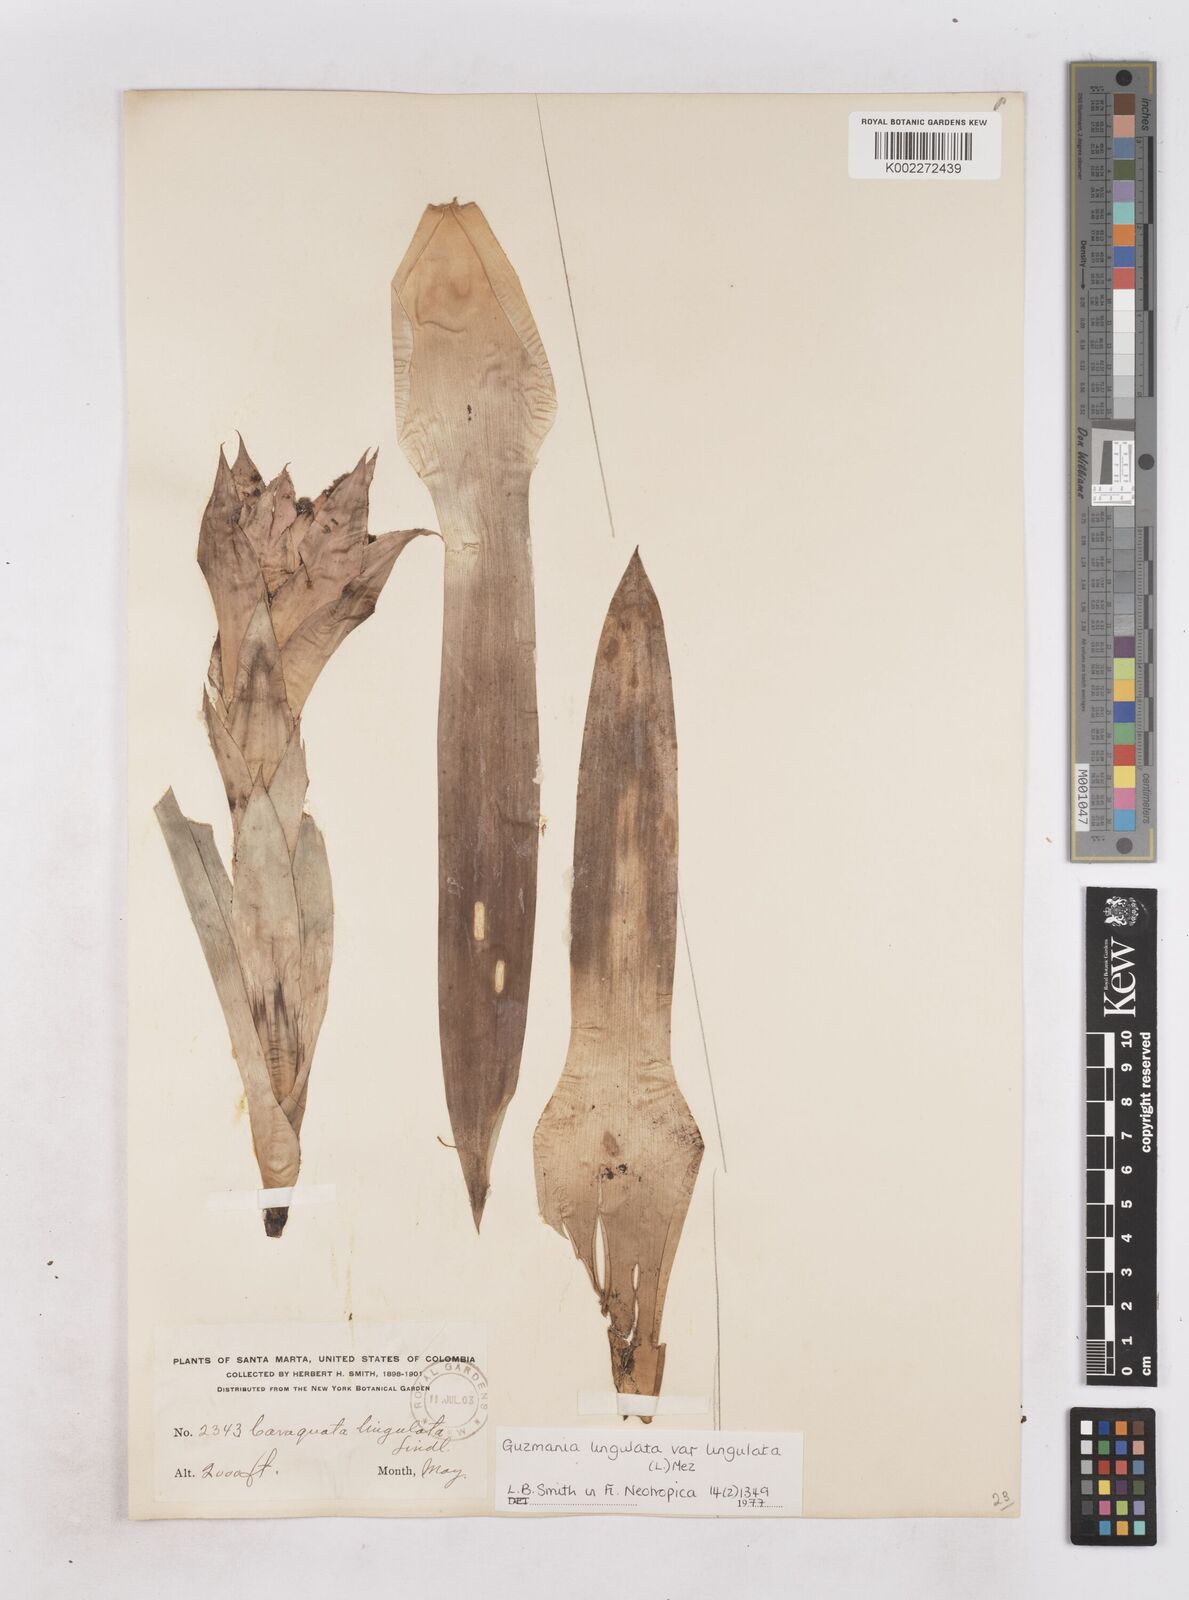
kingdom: Plantae
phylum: Tracheophyta
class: Liliopsida
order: Poales
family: Bromeliaceae
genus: Guzmania
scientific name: Guzmania lingulata
